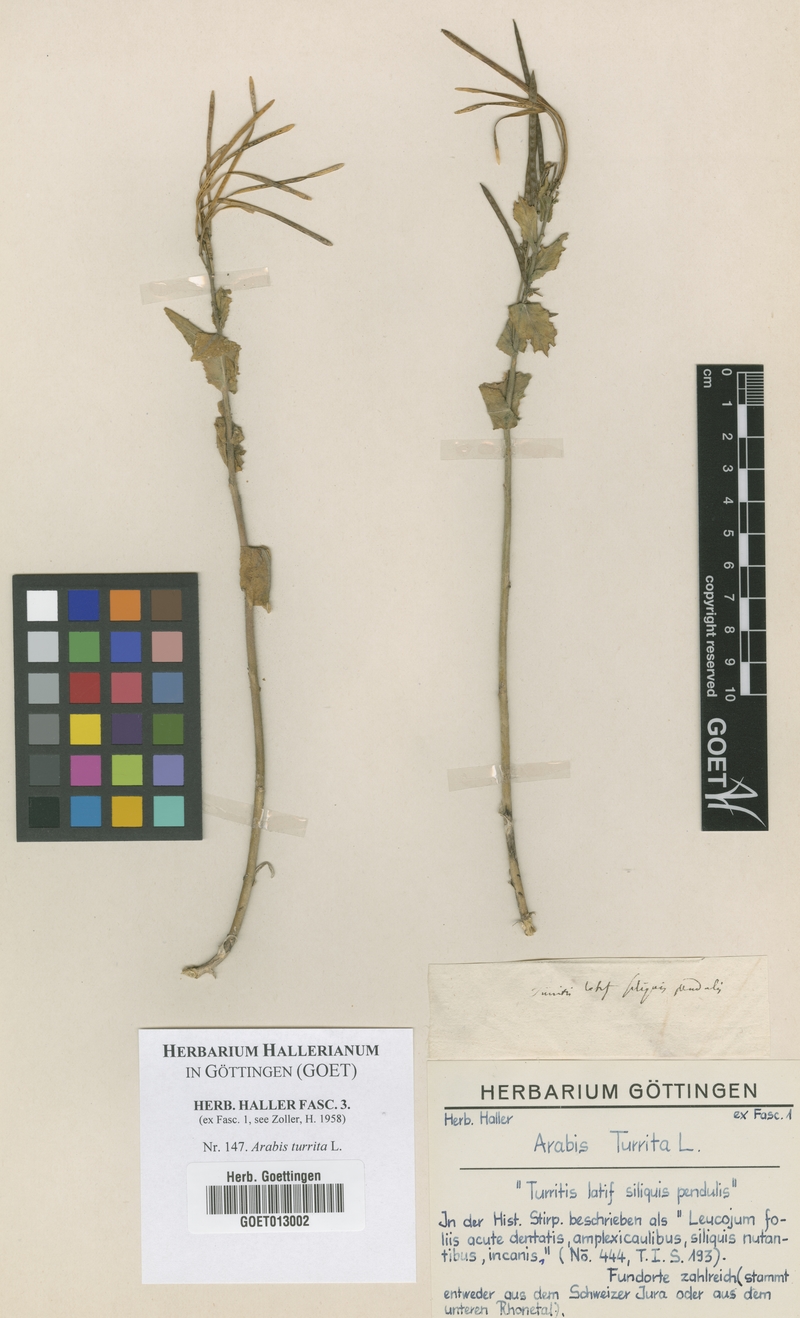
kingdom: Plantae
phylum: Tracheophyta
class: Magnoliopsida
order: Brassicales
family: Brassicaceae
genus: Pseudoturritis
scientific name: Pseudoturritis turrita
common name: Tower cress
